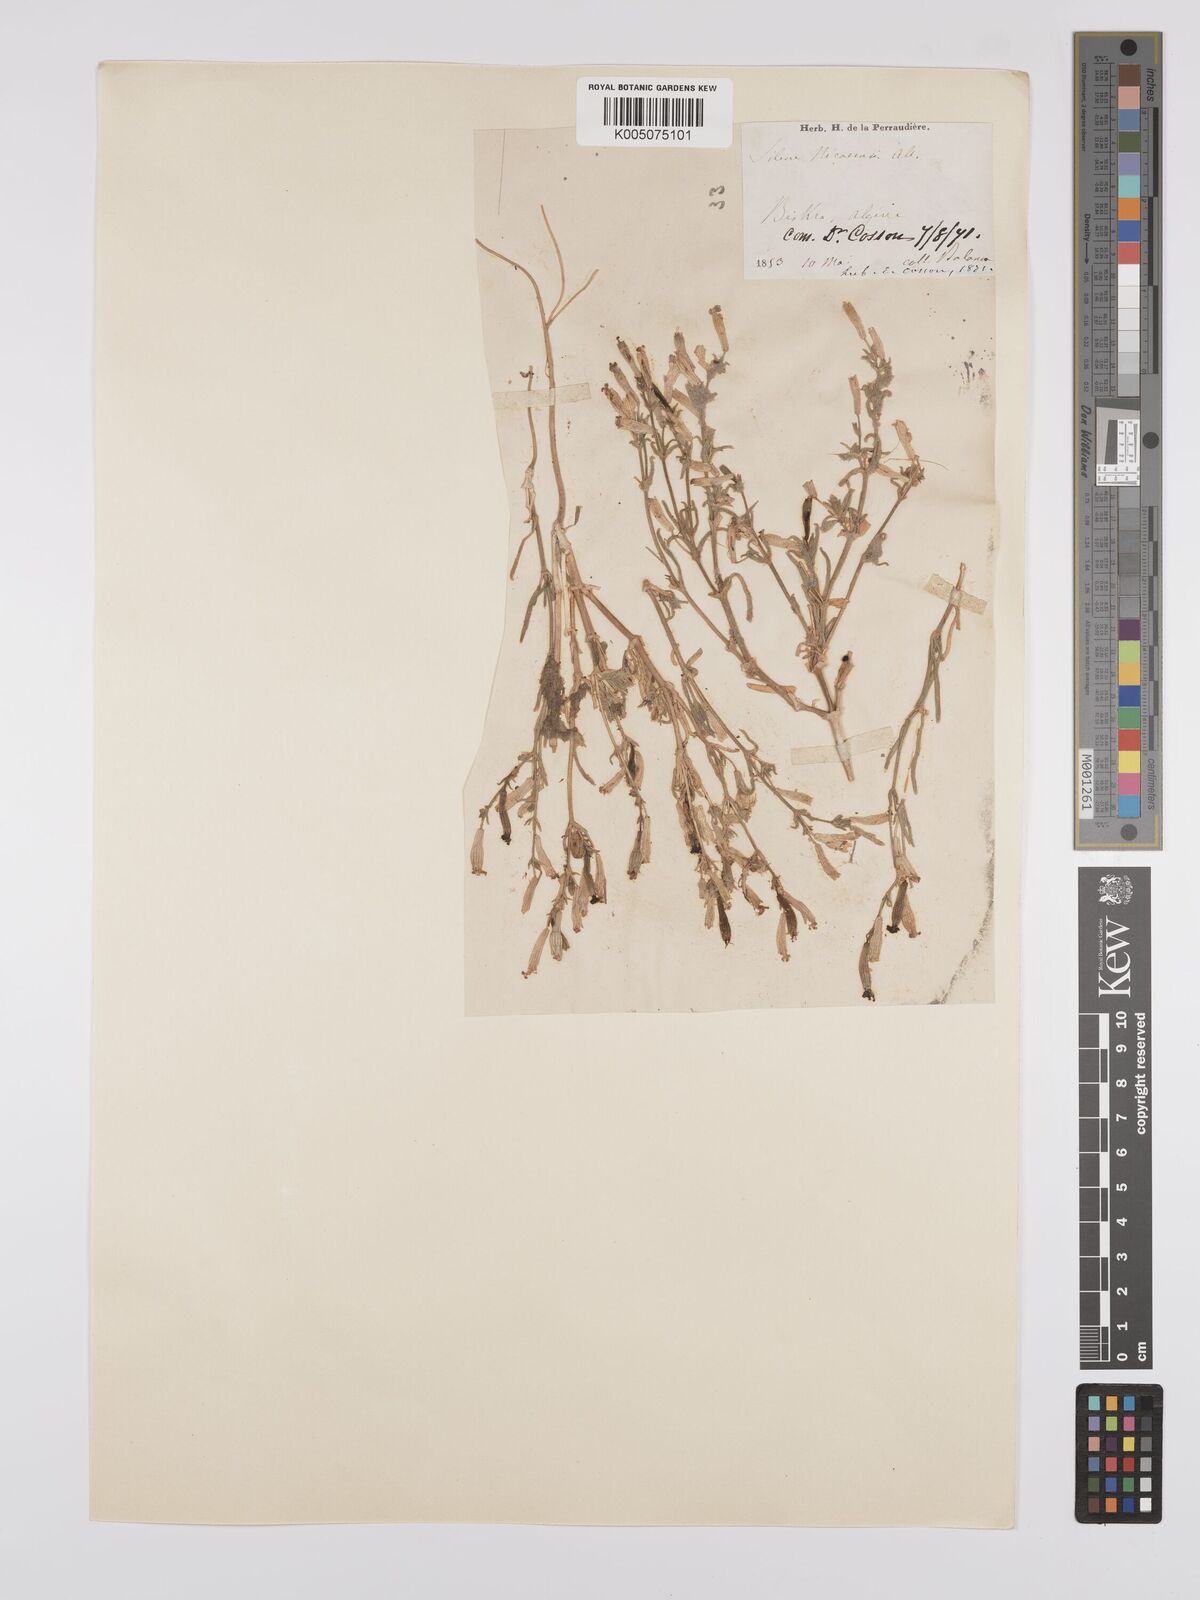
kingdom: Plantae
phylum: Tracheophyta
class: Magnoliopsida
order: Caryophyllales
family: Caryophyllaceae
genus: Silene
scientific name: Silene nicaeensis
